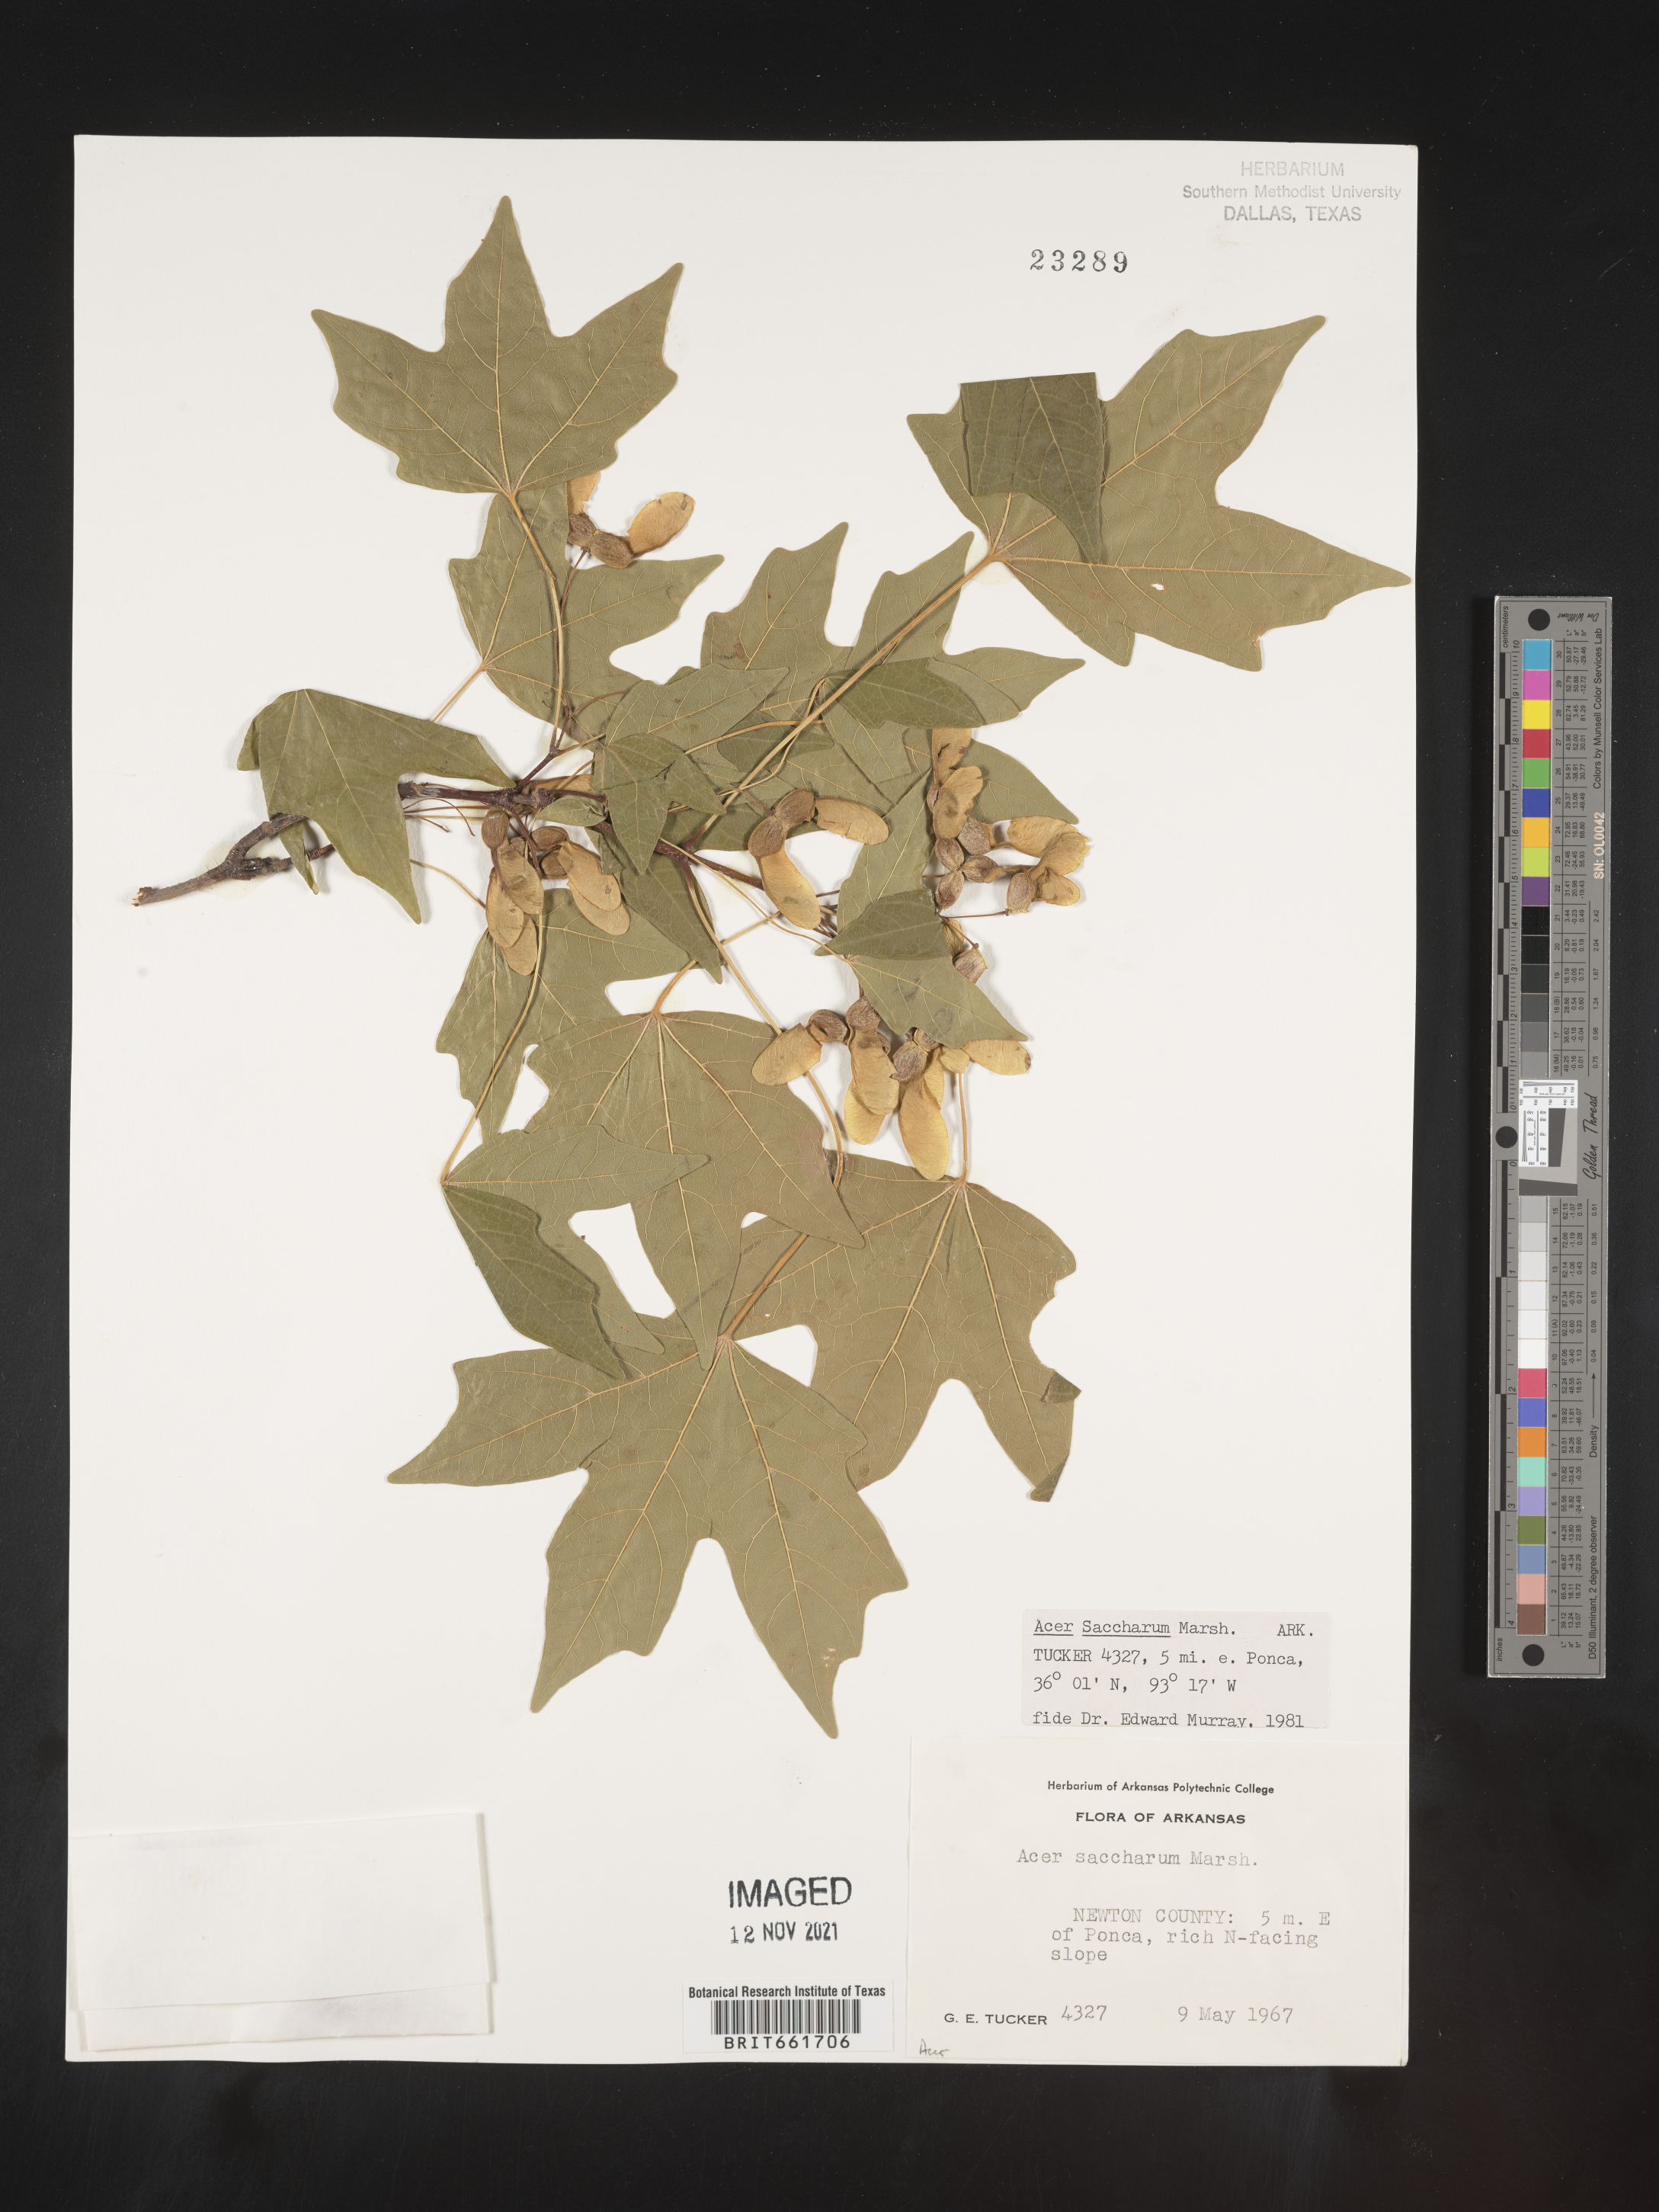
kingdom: Plantae
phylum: Tracheophyta
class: Magnoliopsida
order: Sapindales
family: Sapindaceae
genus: Acer
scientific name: Acer saccharum
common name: Sugar maple
